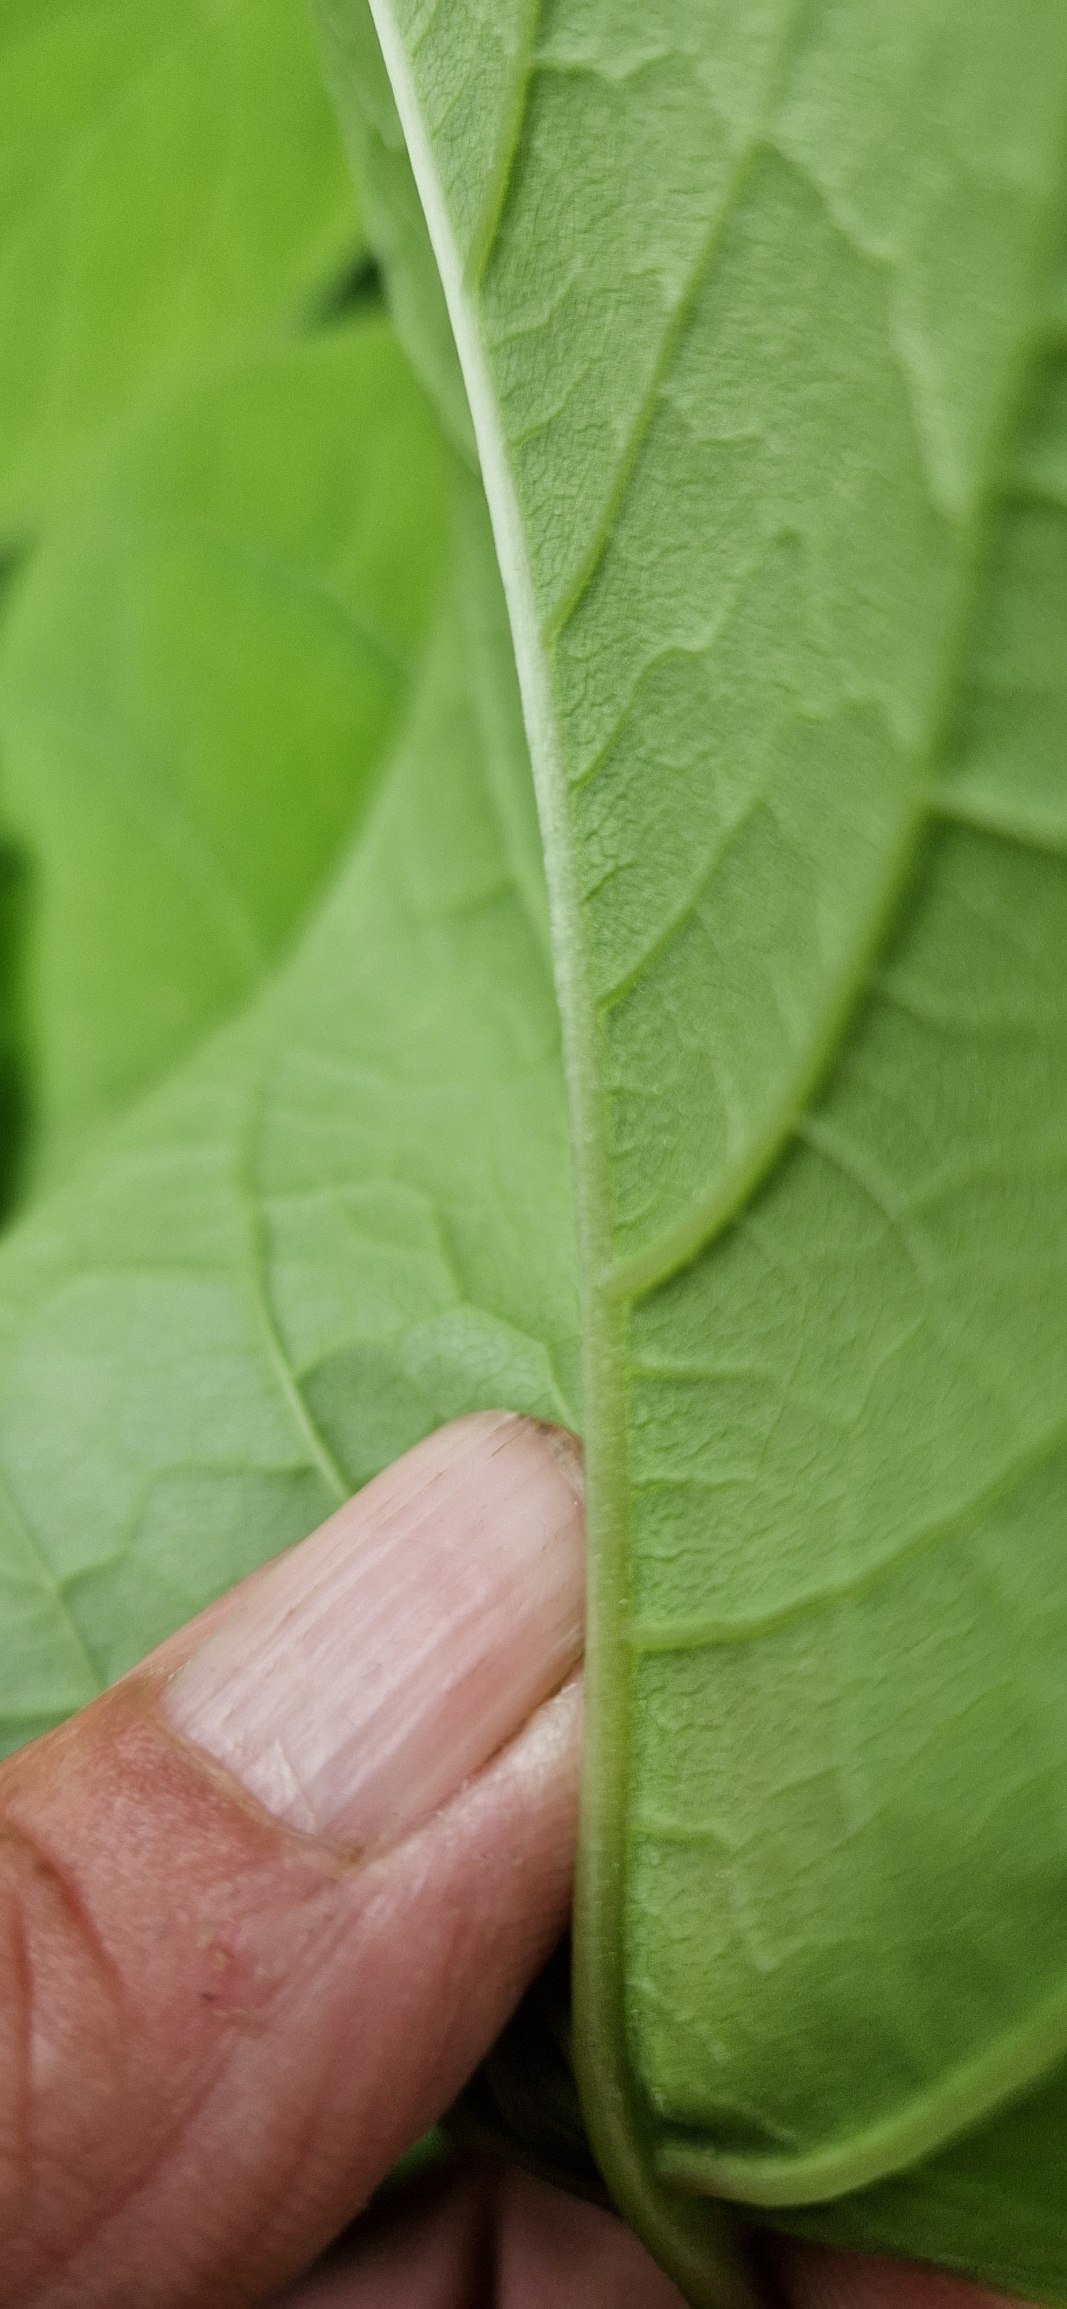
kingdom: Plantae
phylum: Tracheophyta
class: Magnoliopsida
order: Caryophyllales
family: Polygonaceae
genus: Reynoutria
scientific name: Reynoutria japonica
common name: Japan-pileurt
